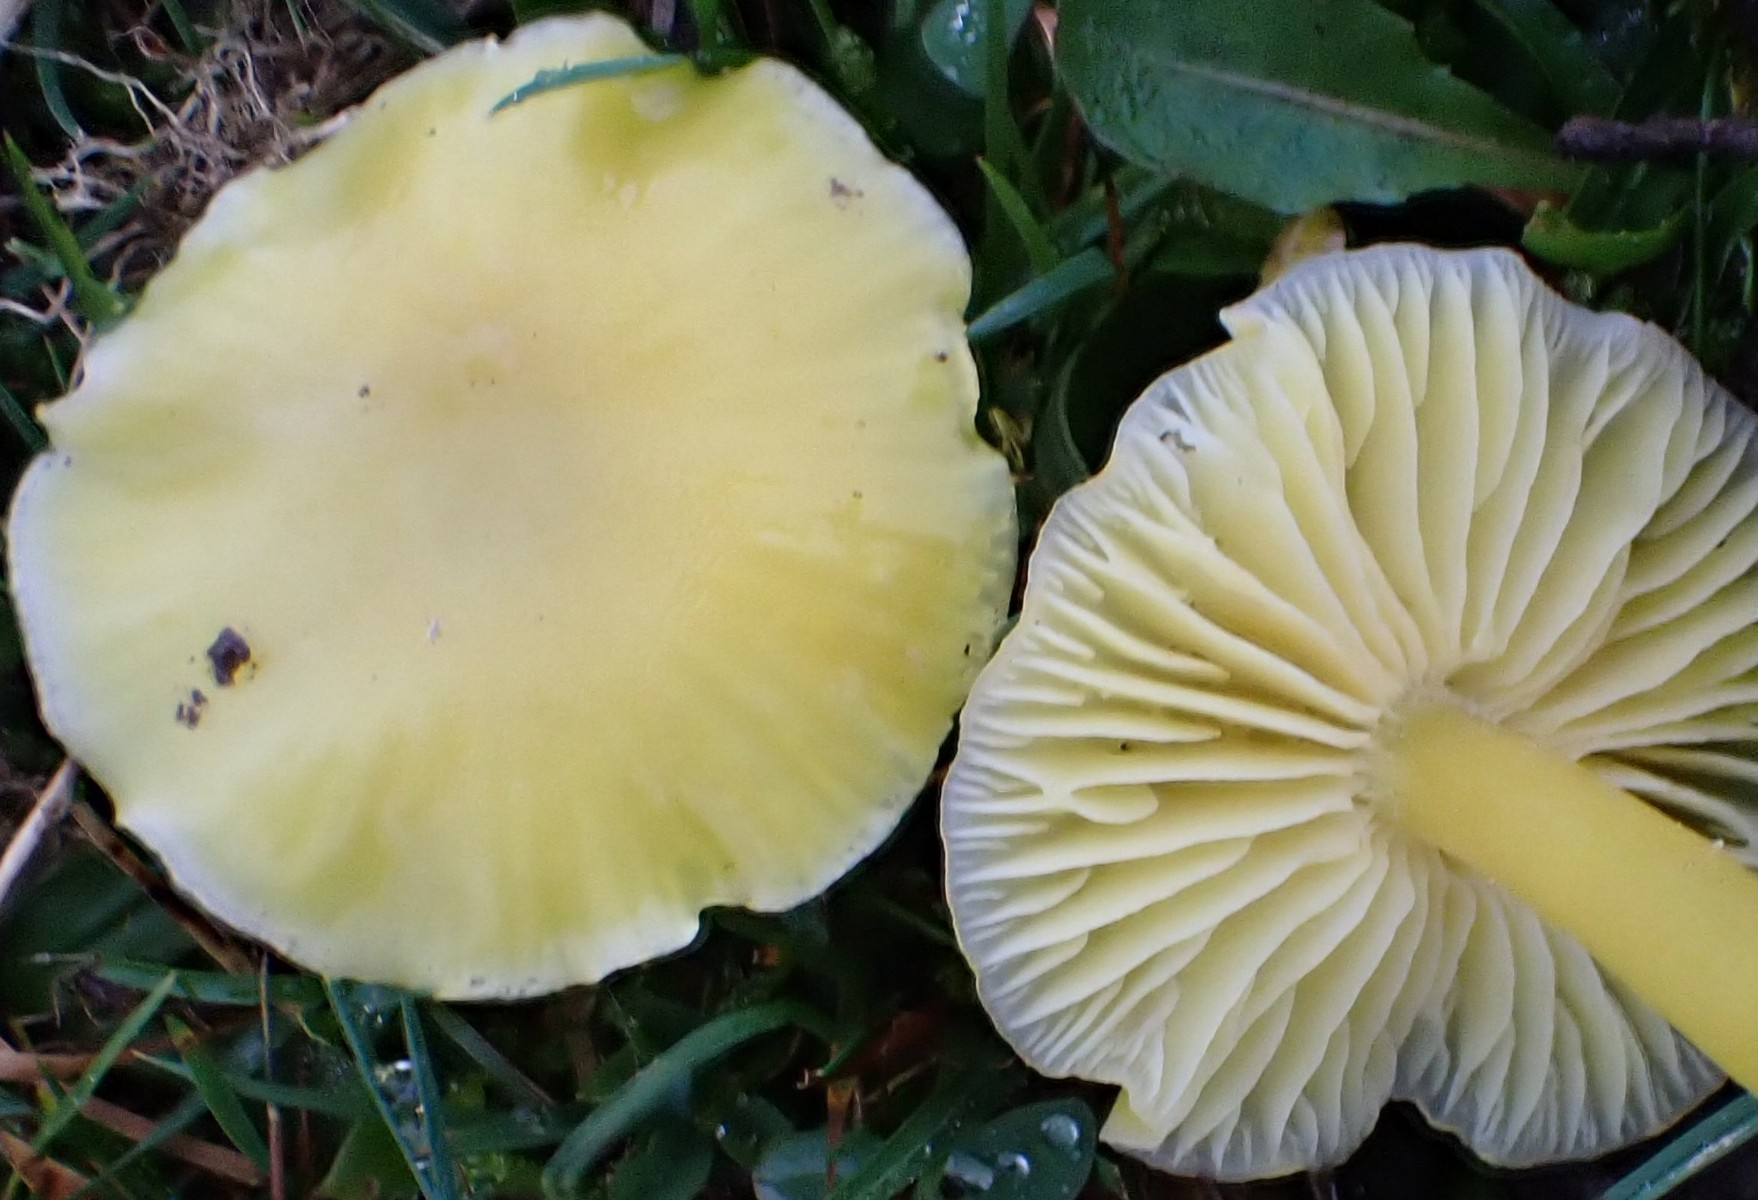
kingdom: Fungi
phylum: Basidiomycota
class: Agaricomycetes
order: Agaricales
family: Hygrophoraceae
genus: Hygrocybe
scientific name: Hygrocybe ceracea
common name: voksgul vokshat
